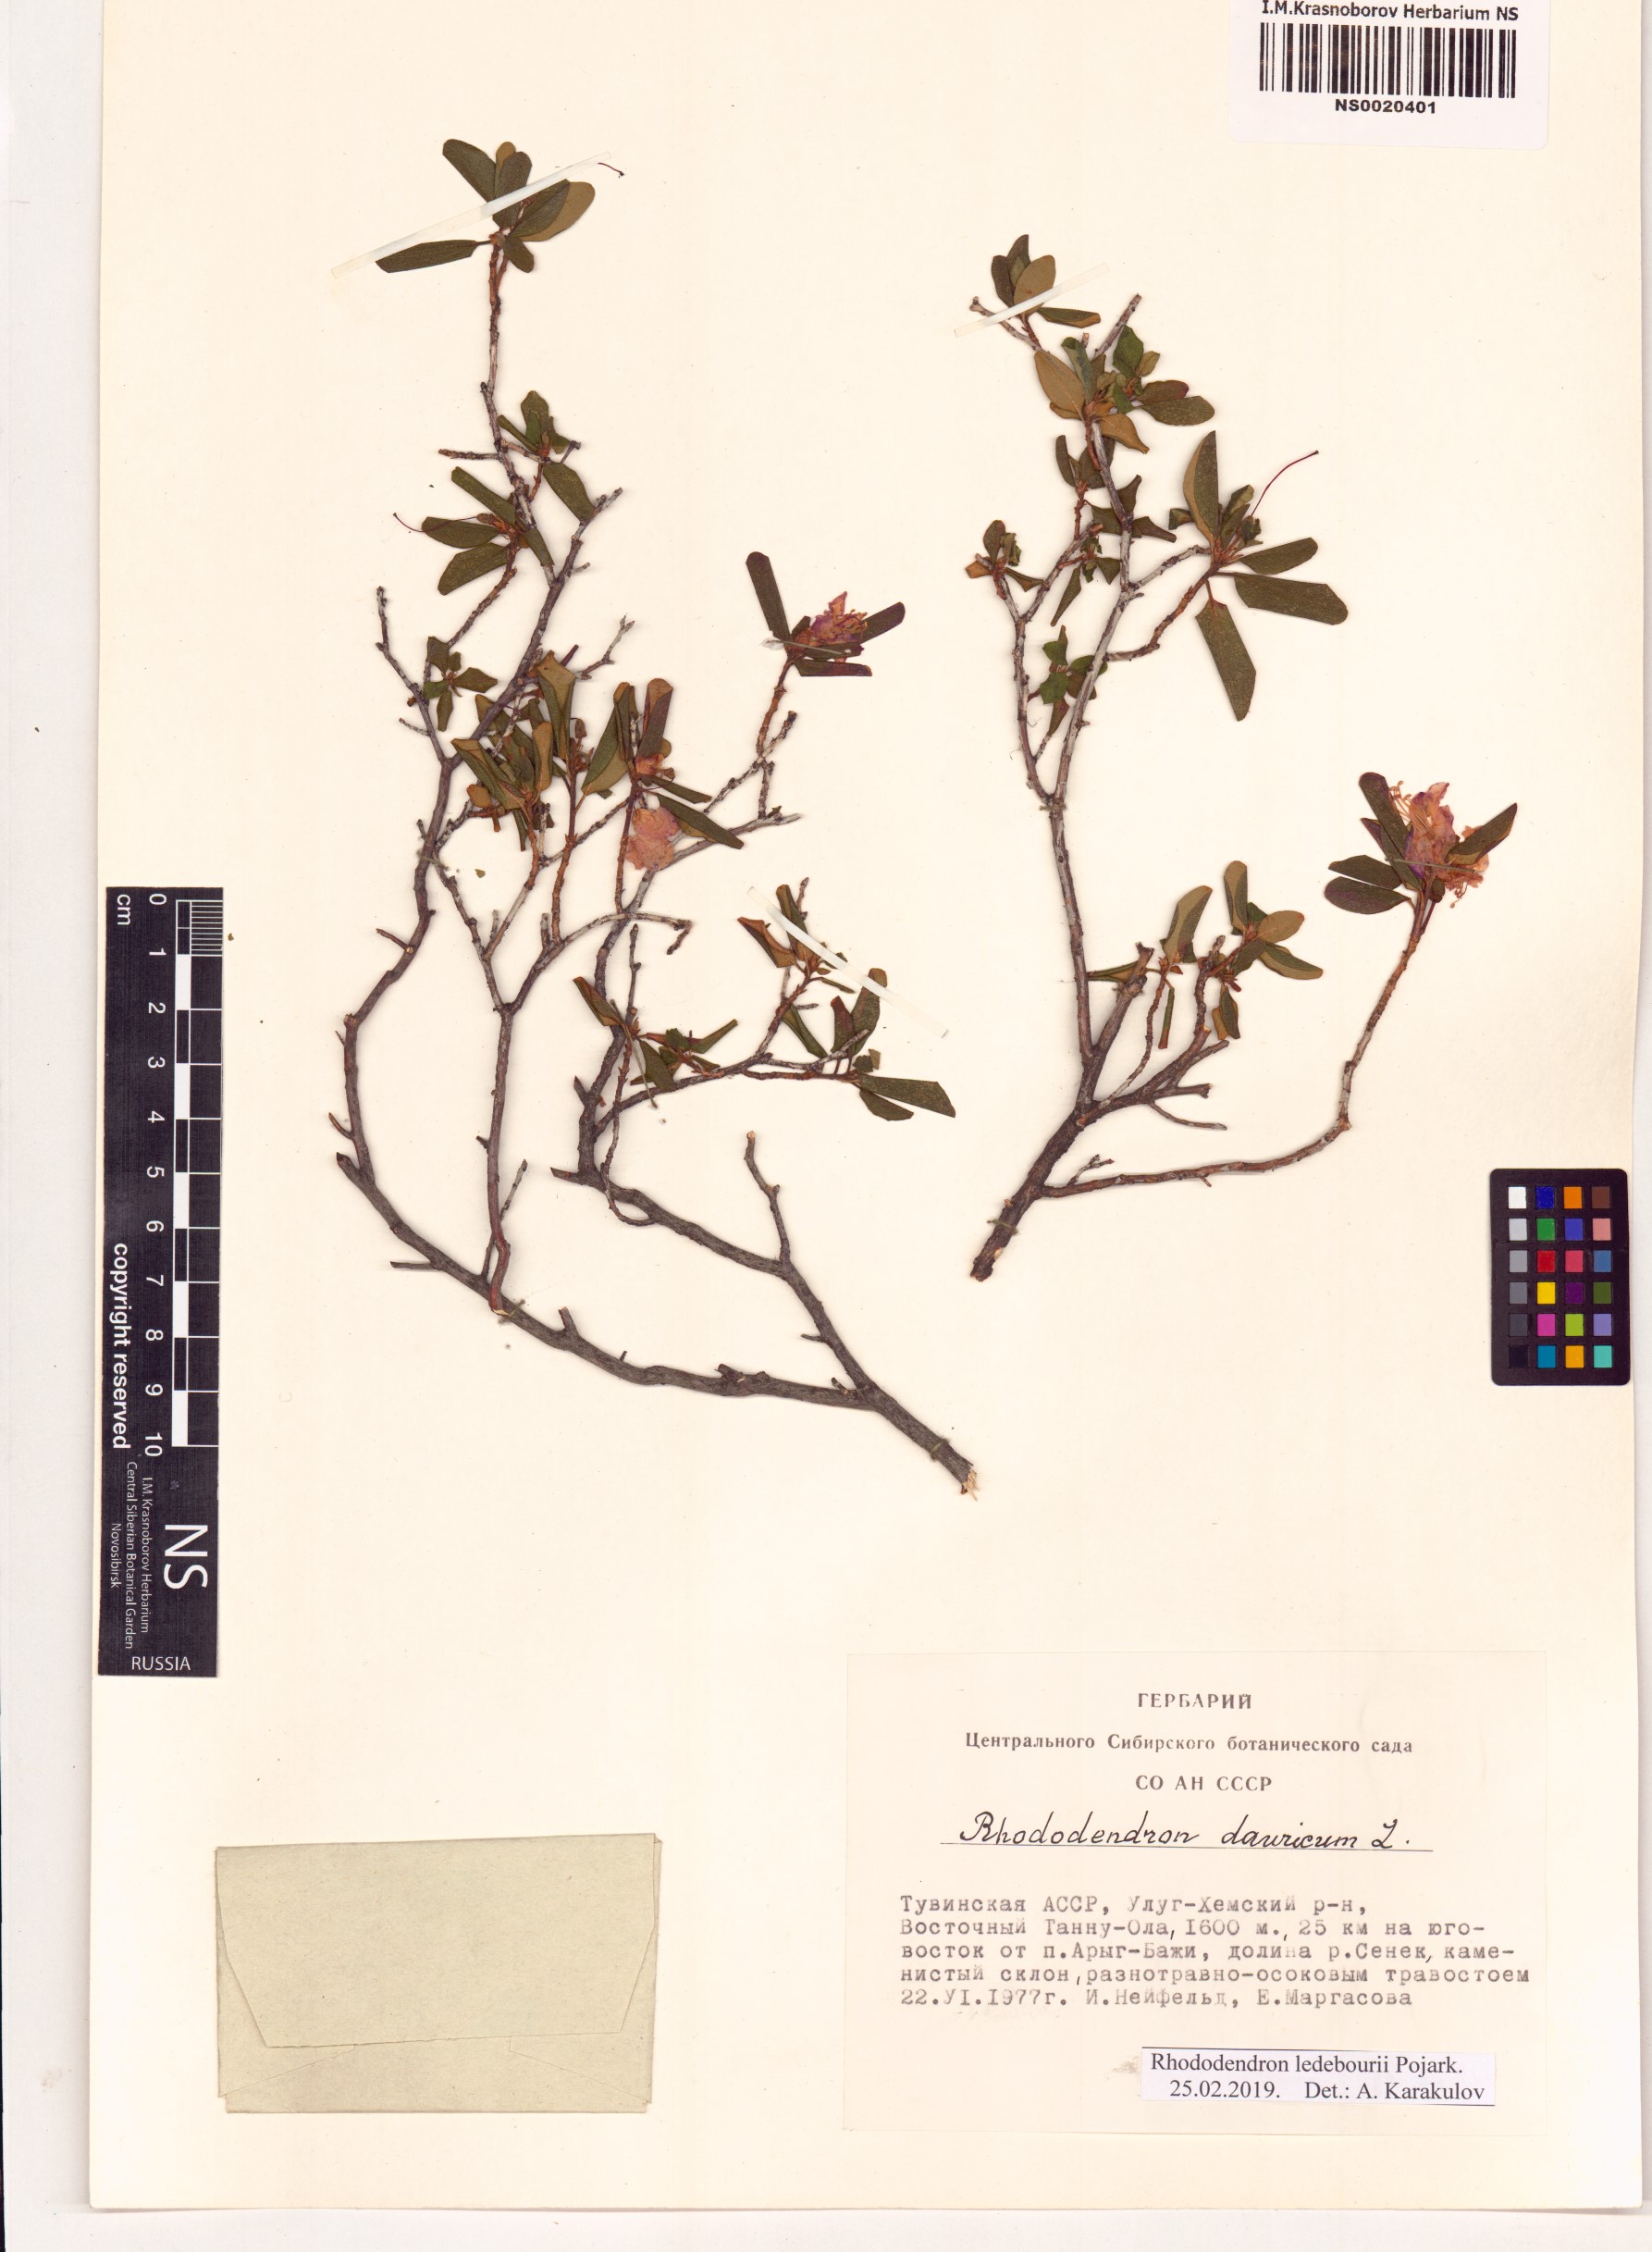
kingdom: Plantae
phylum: Tracheophyta
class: Magnoliopsida
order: Ericales
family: Ericaceae
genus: Rhododendron
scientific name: Rhododendron dauricum
